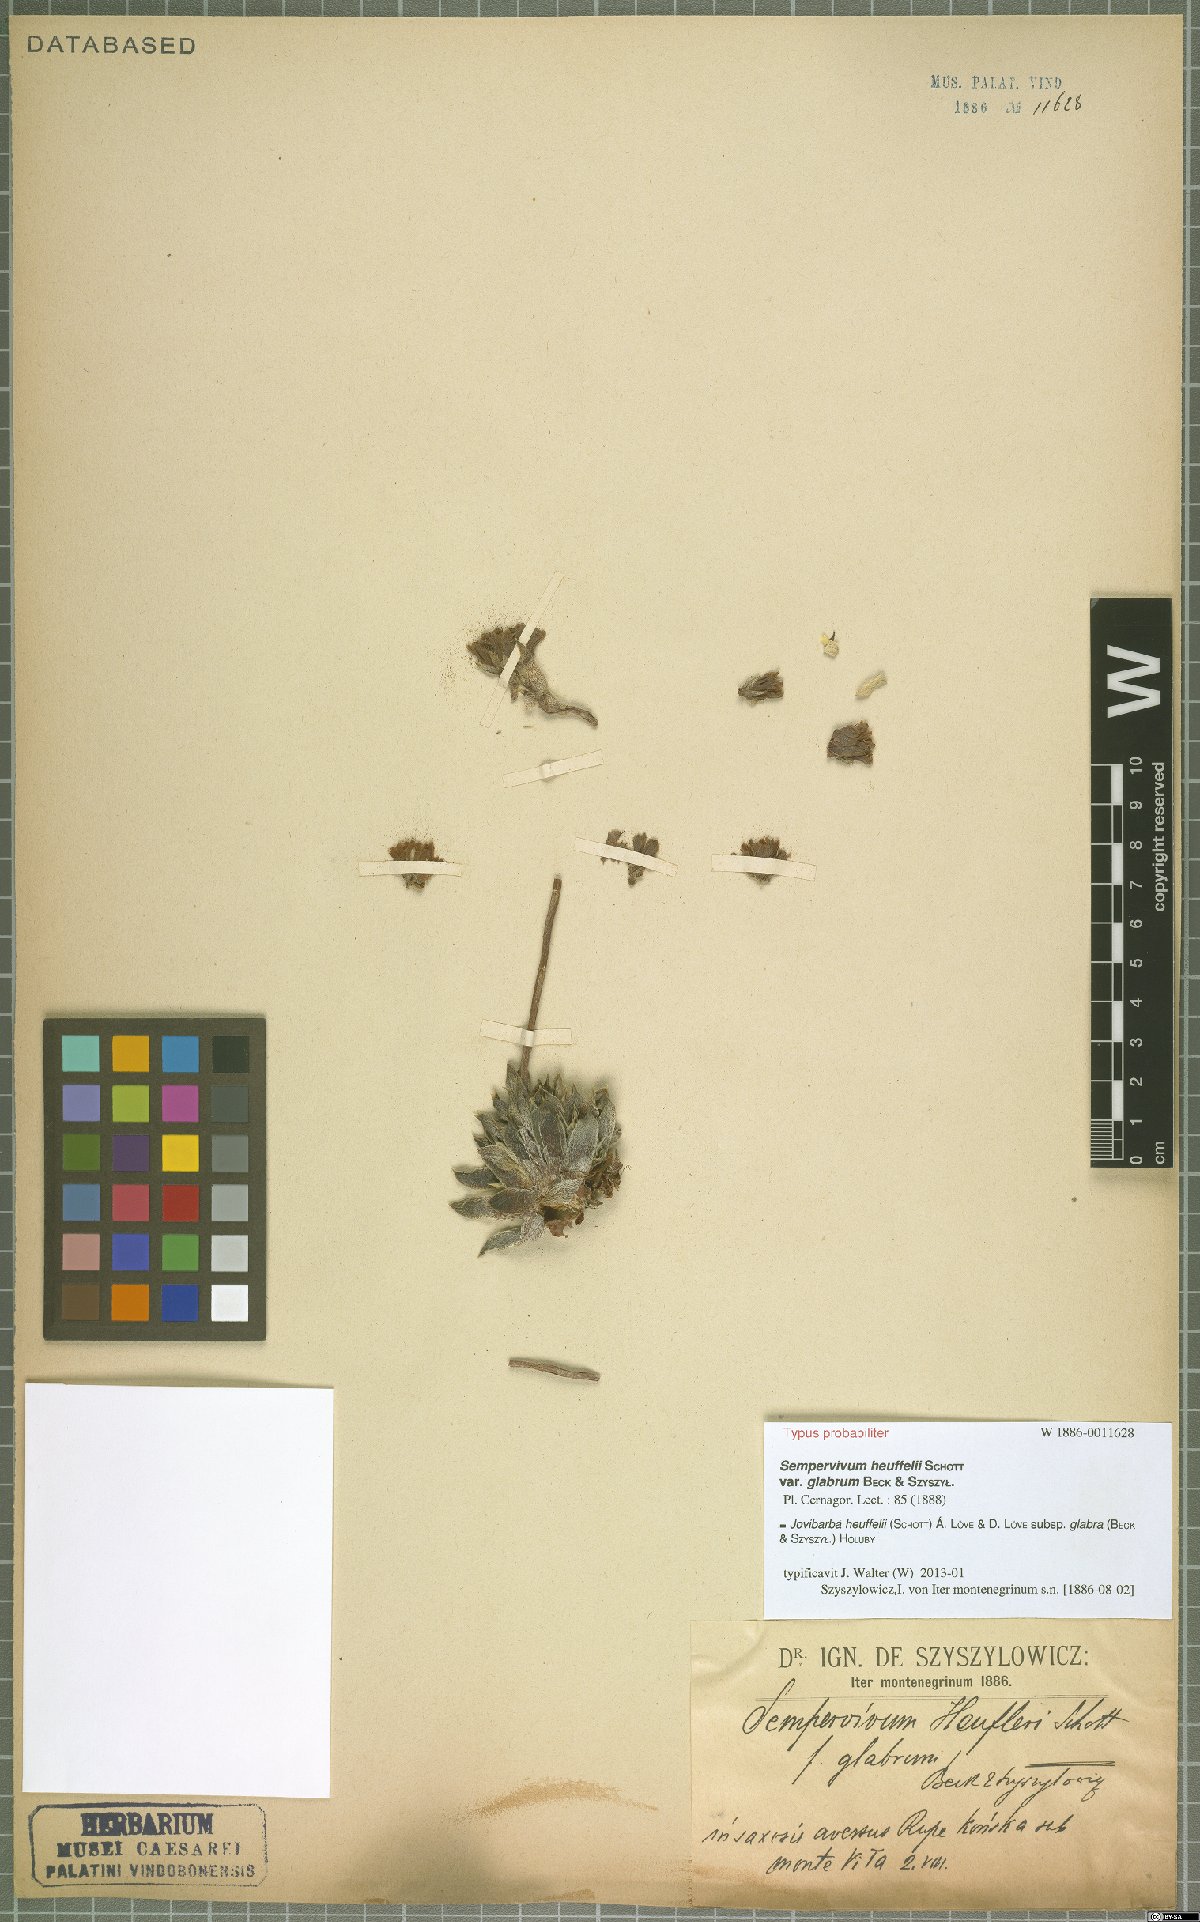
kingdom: Plantae
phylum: Tracheophyta
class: Magnoliopsida
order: Saxifragales
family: Crassulaceae
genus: Sempervivum
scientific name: Sempervivum heuffelii
